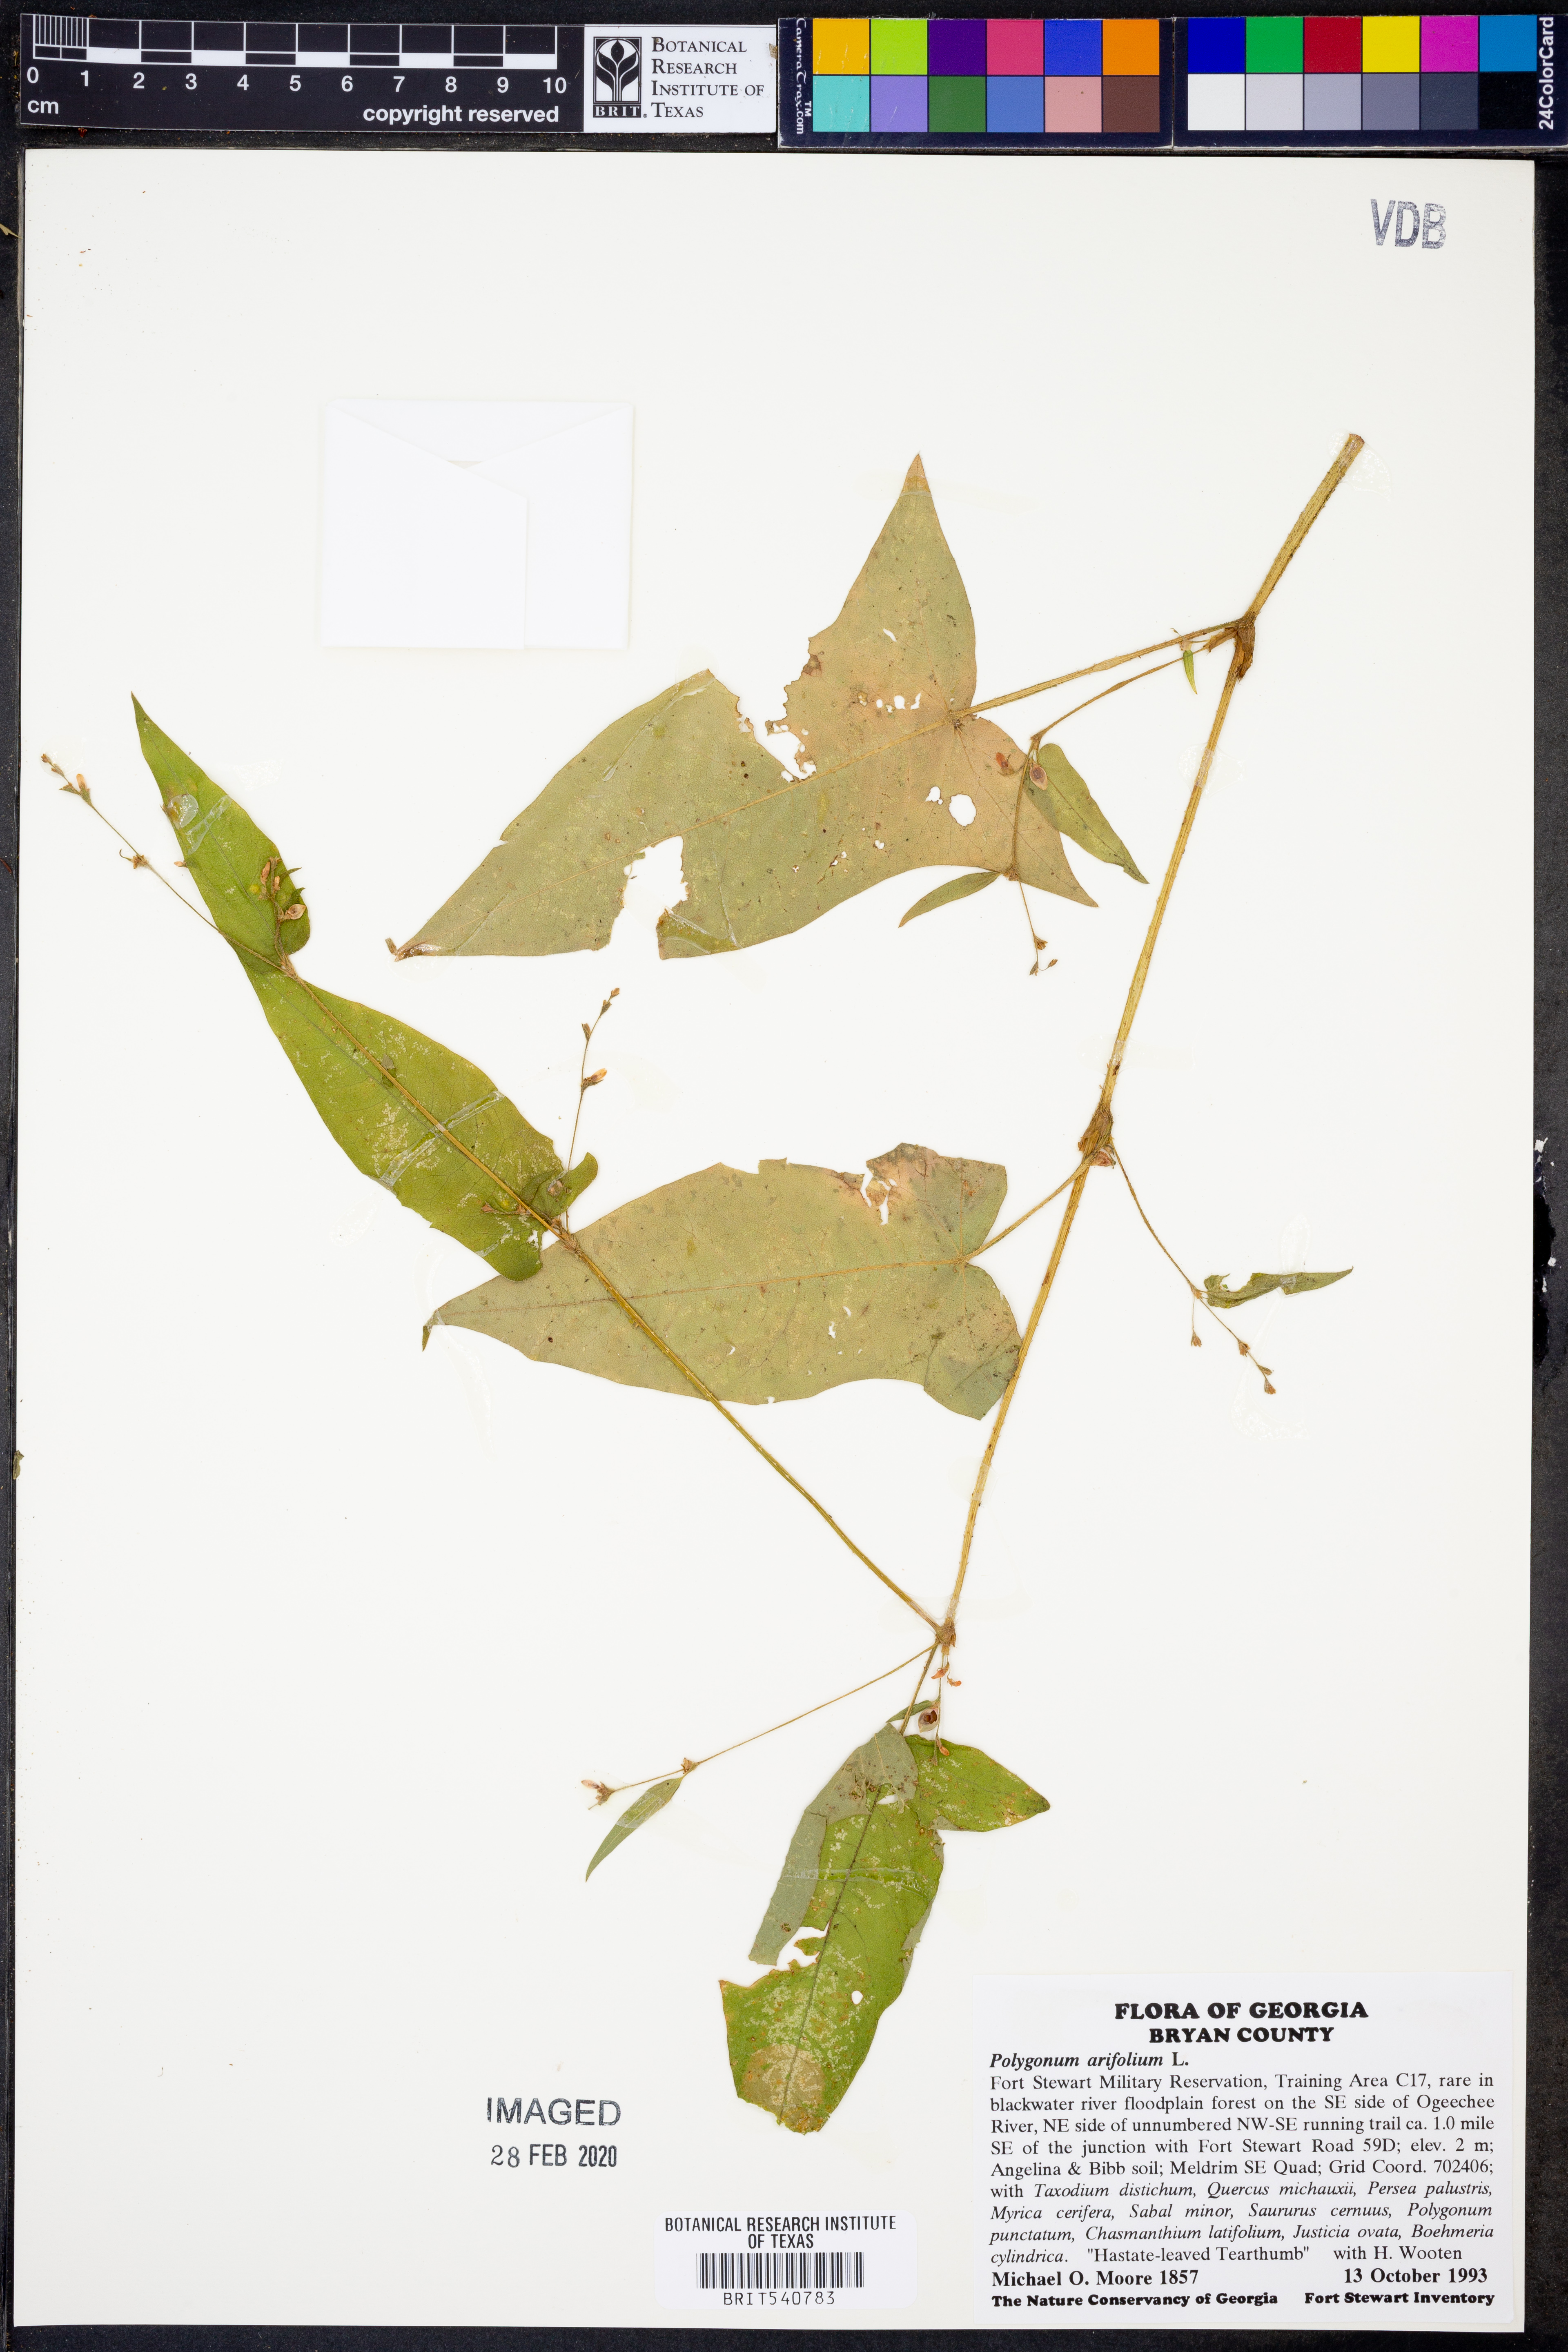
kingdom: Plantae
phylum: Tracheophyta
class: Magnoliopsida
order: Caryophyllales
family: Polygonaceae
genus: Persicaria
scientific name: Persicaria arifolia
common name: Halberd-leaved tear-thumb
